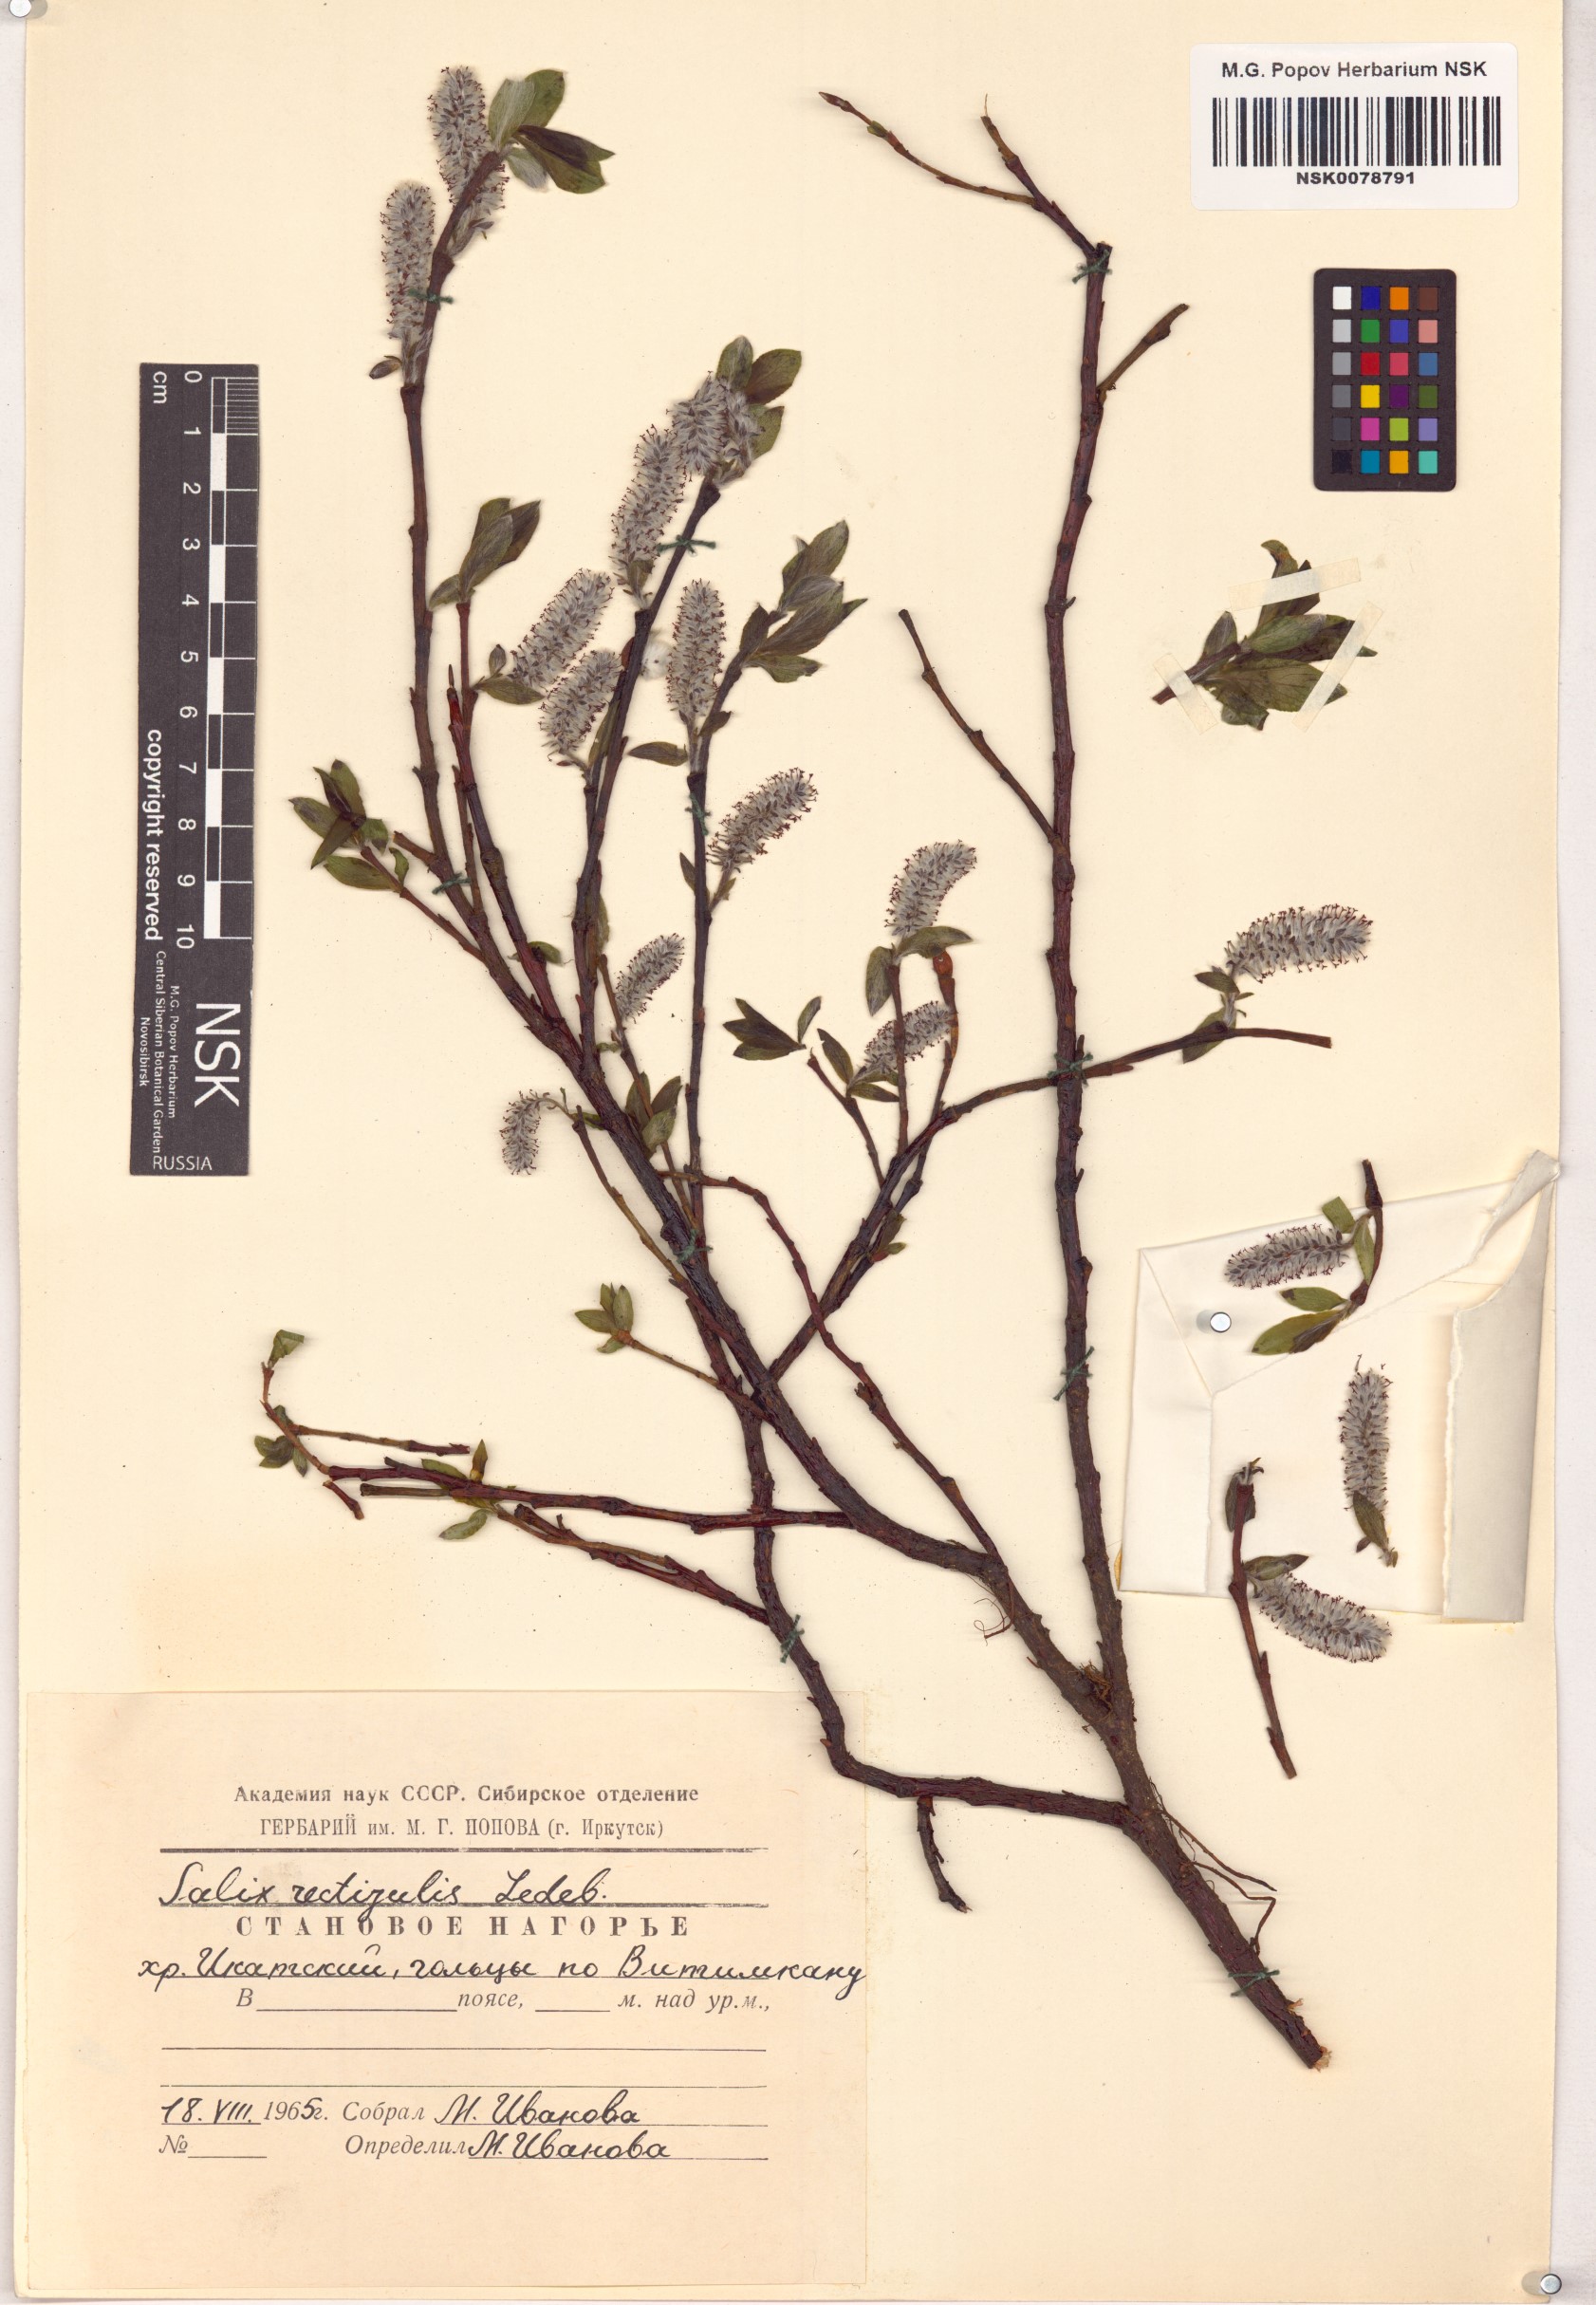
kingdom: Plantae
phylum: Tracheophyta
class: Magnoliopsida
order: Malpighiales
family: Salicaceae
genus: Salix
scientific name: Salix rectijulis
